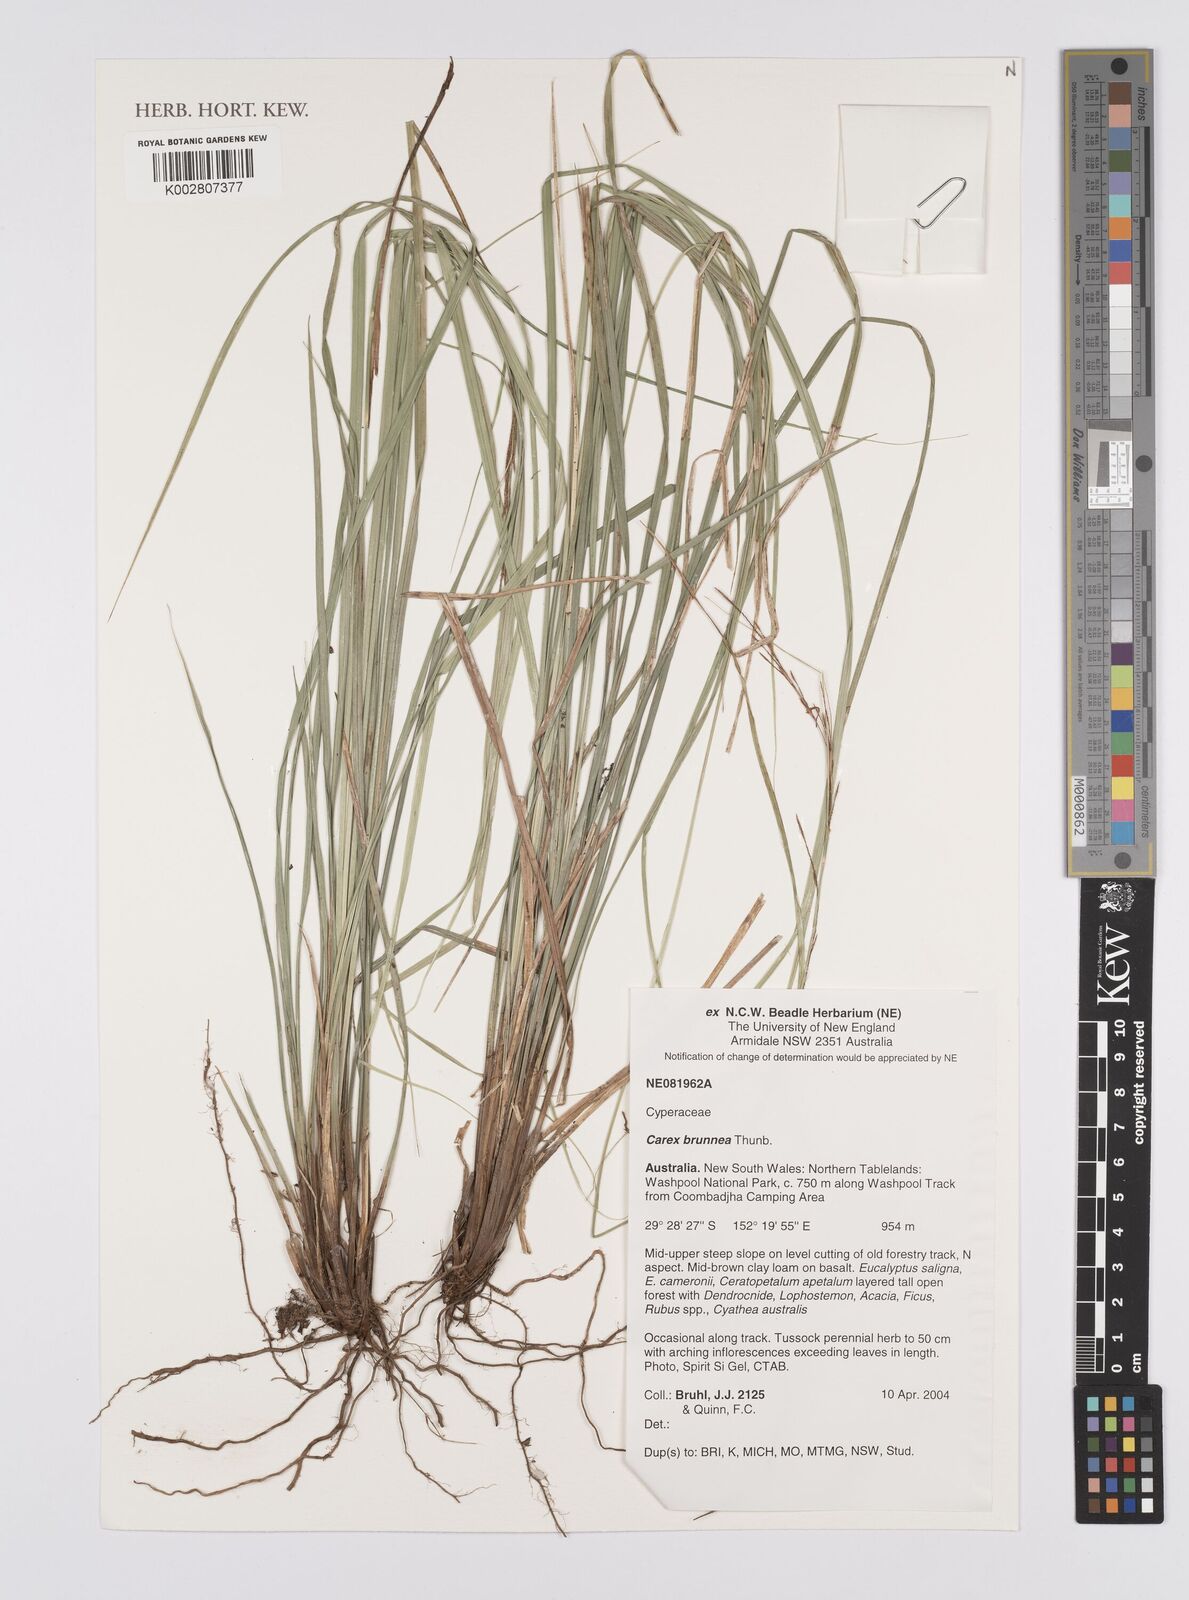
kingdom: Plantae
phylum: Tracheophyta
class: Liliopsida
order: Poales
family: Cyperaceae
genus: Carex
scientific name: Carex brunnea
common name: Greater brown sedge
